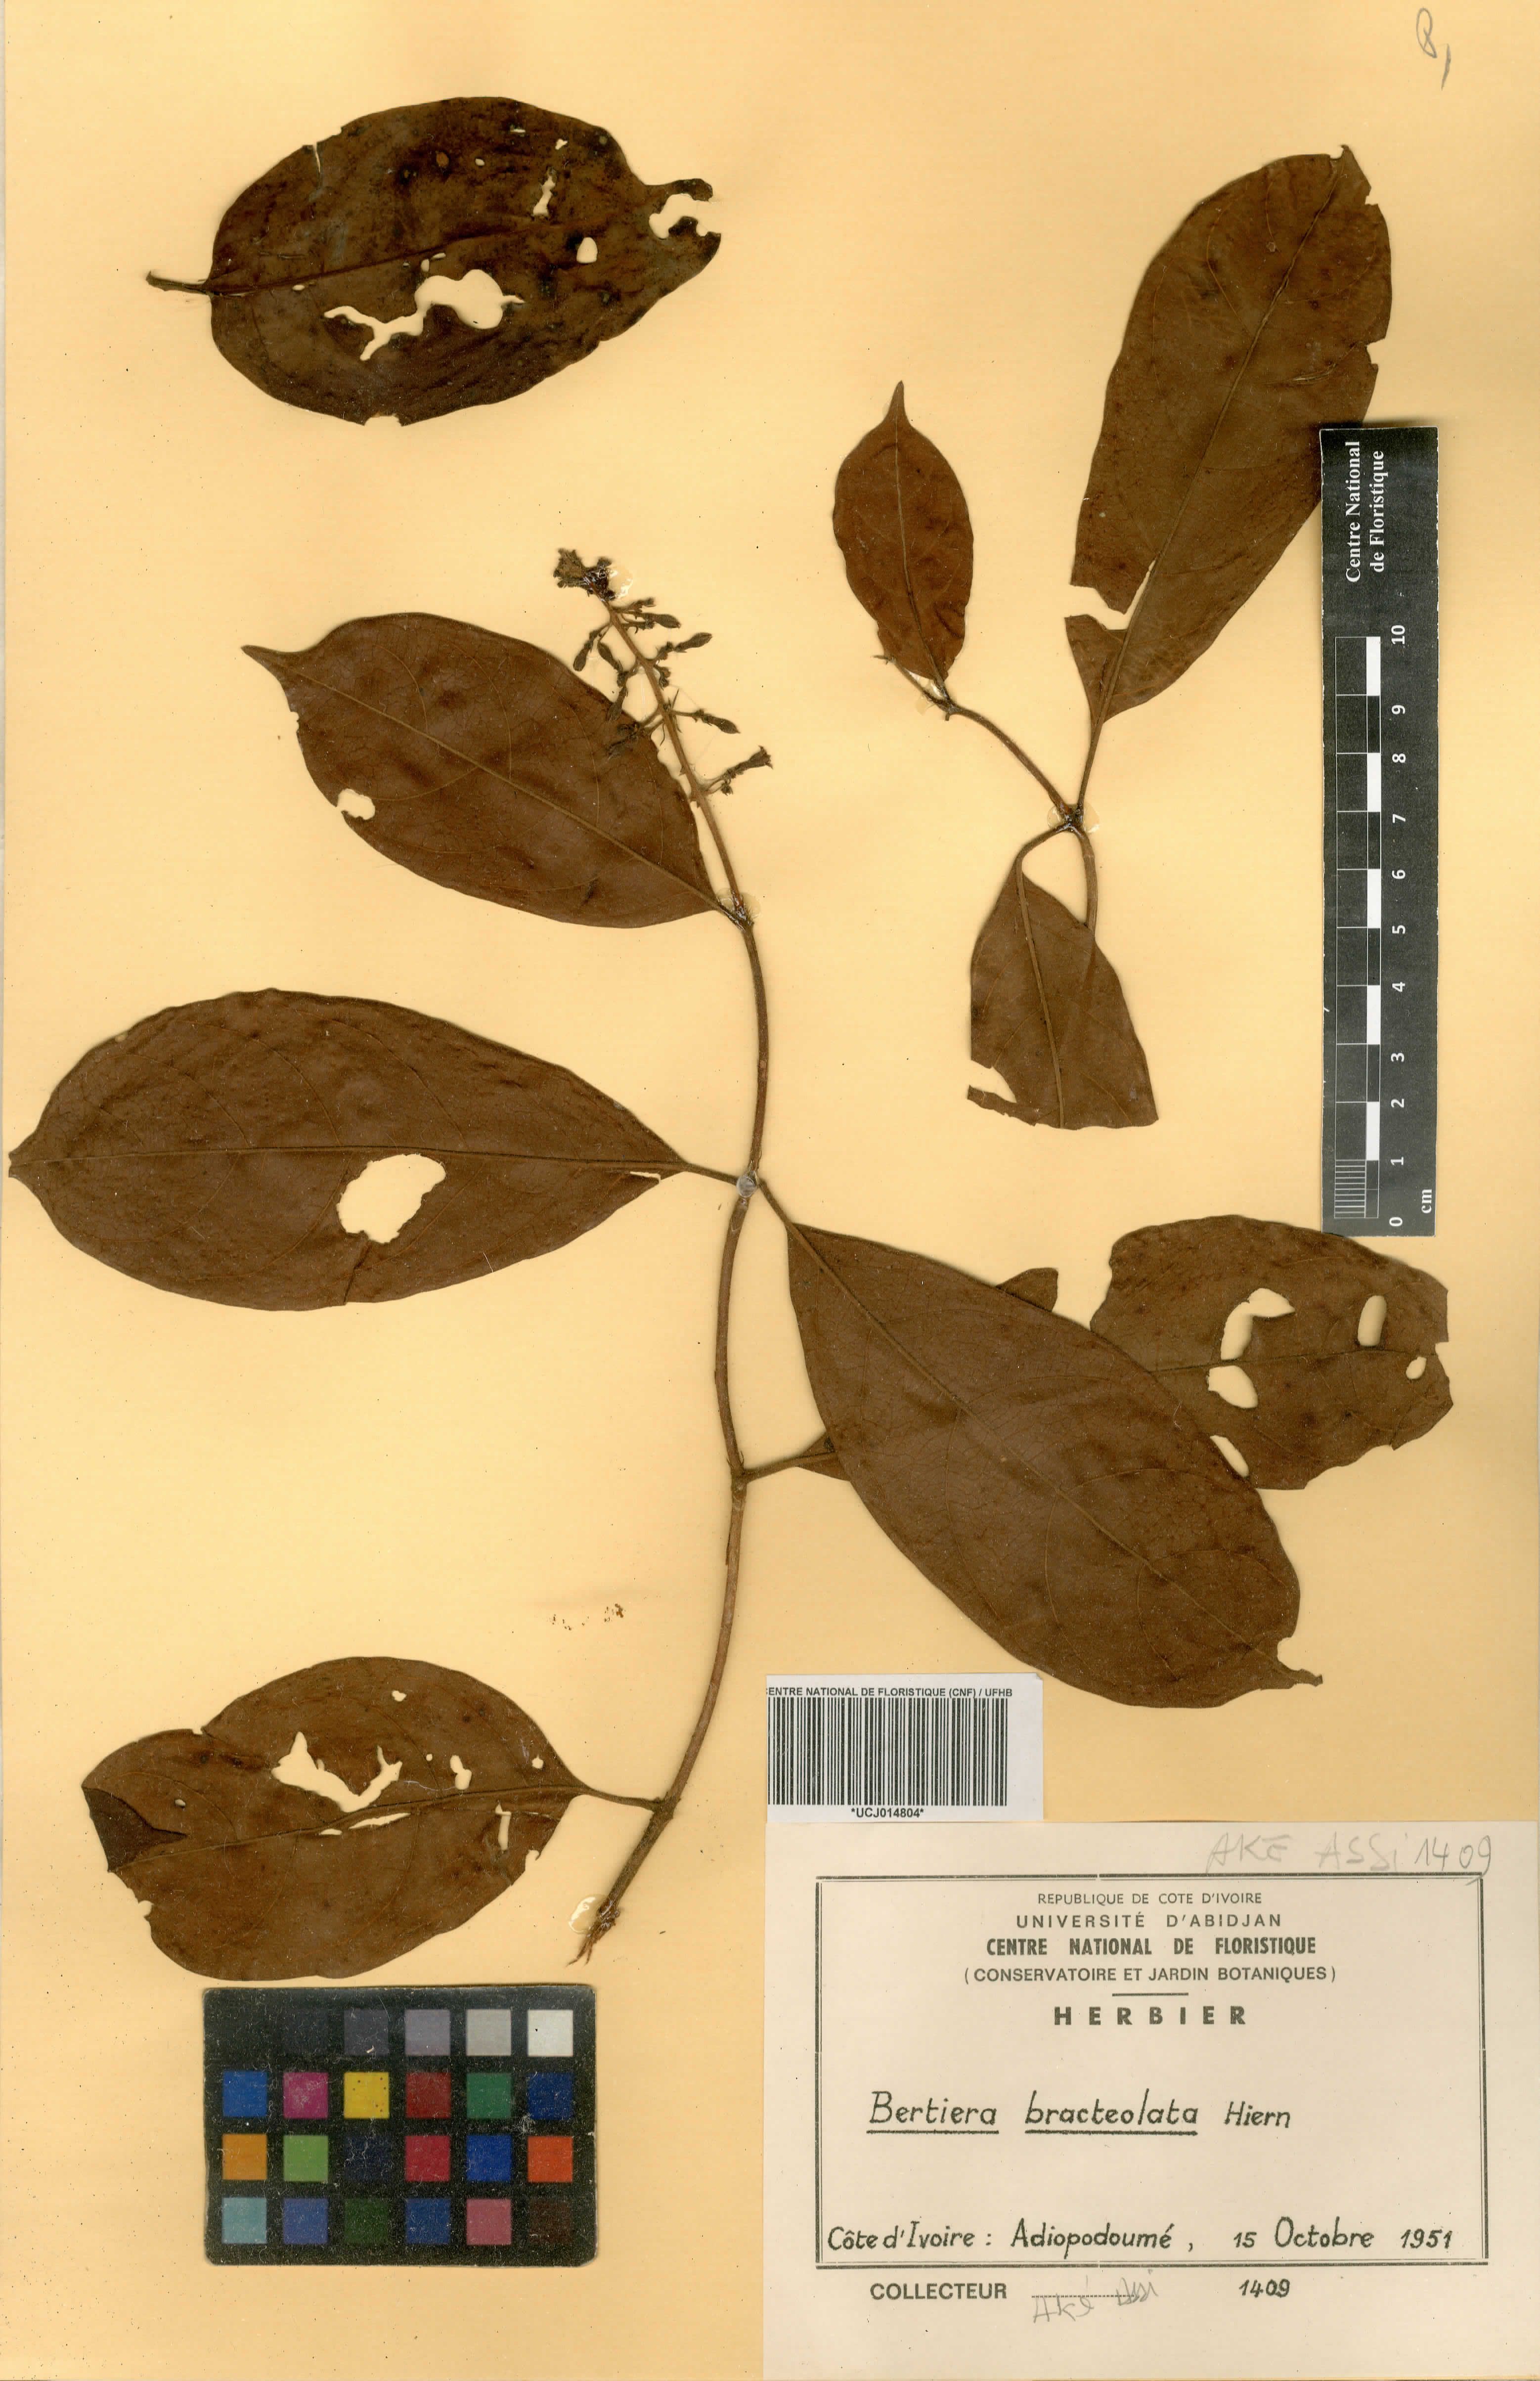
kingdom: Plantae
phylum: Tracheophyta
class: Magnoliopsida
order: Gentianales
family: Rubiaceae
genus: Bertiera
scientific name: Bertiera bracteolata
